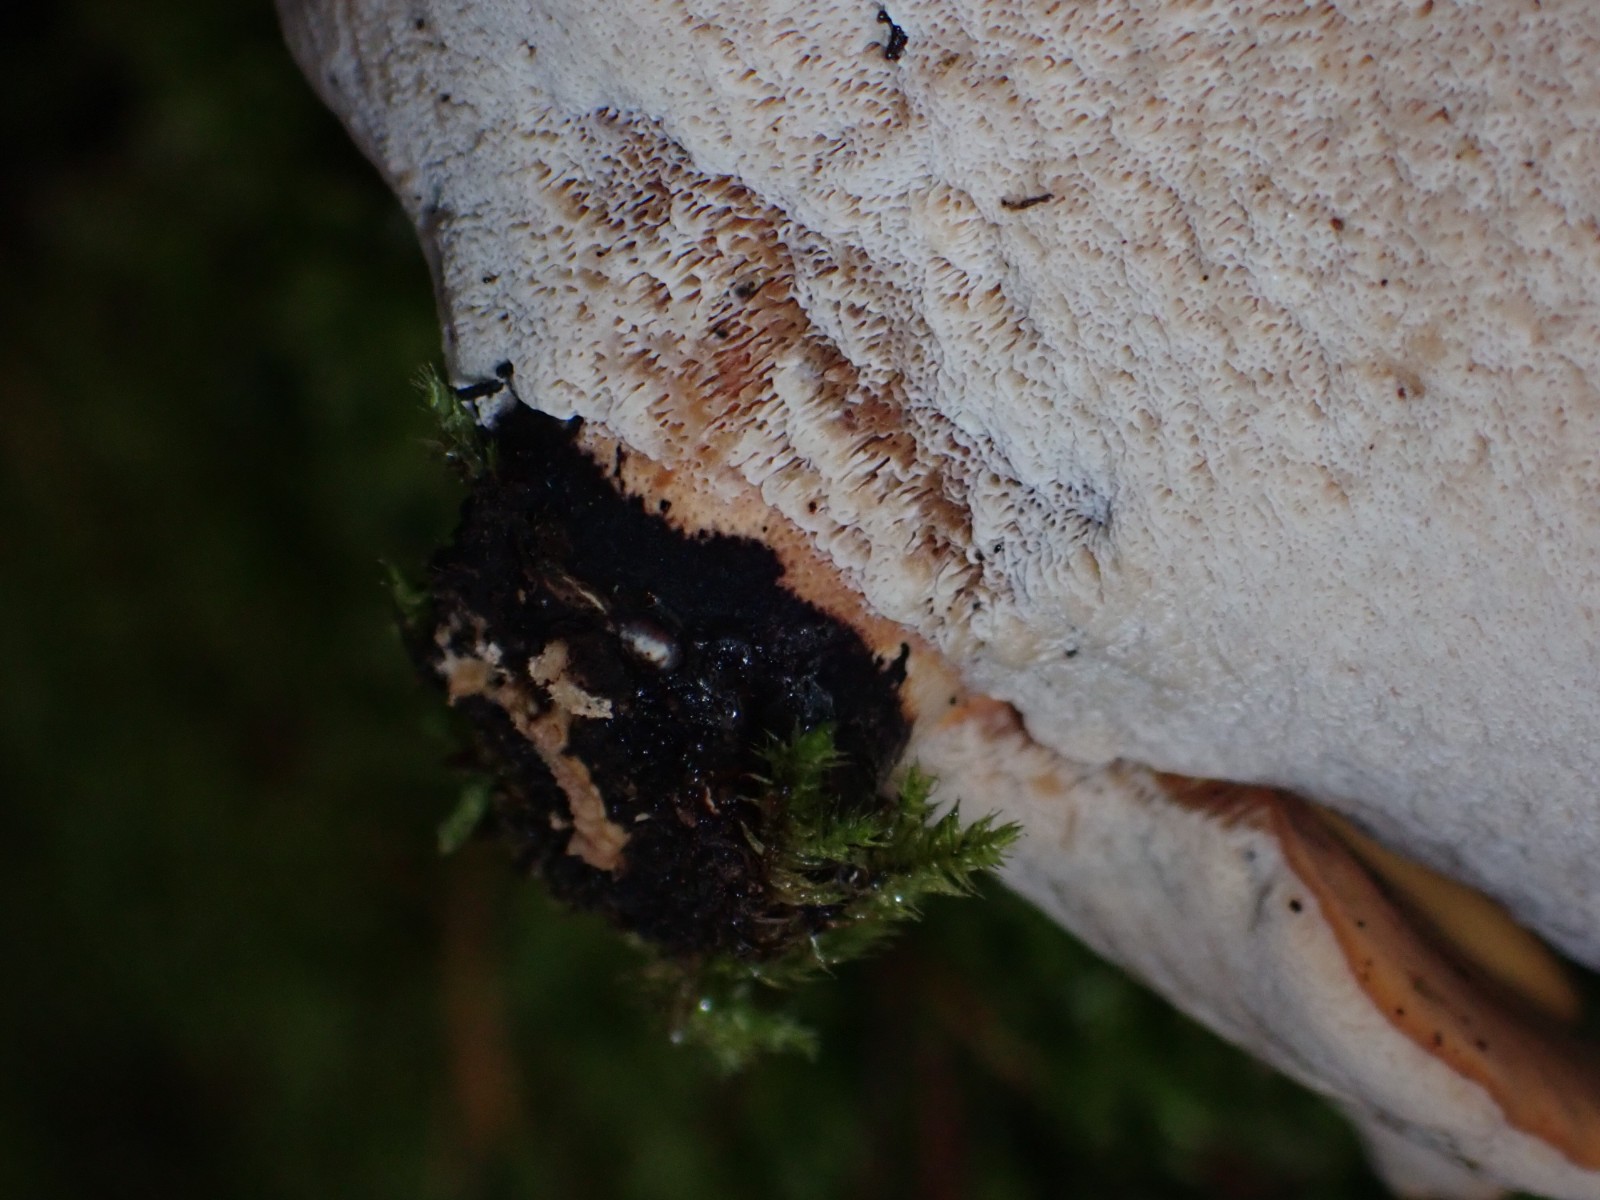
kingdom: Fungi
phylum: Basidiomycota
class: Agaricomycetes
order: Polyporales
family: Polyporaceae
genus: Cerioporus
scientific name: Cerioporus varius
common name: foranderlig stilkporesvamp
